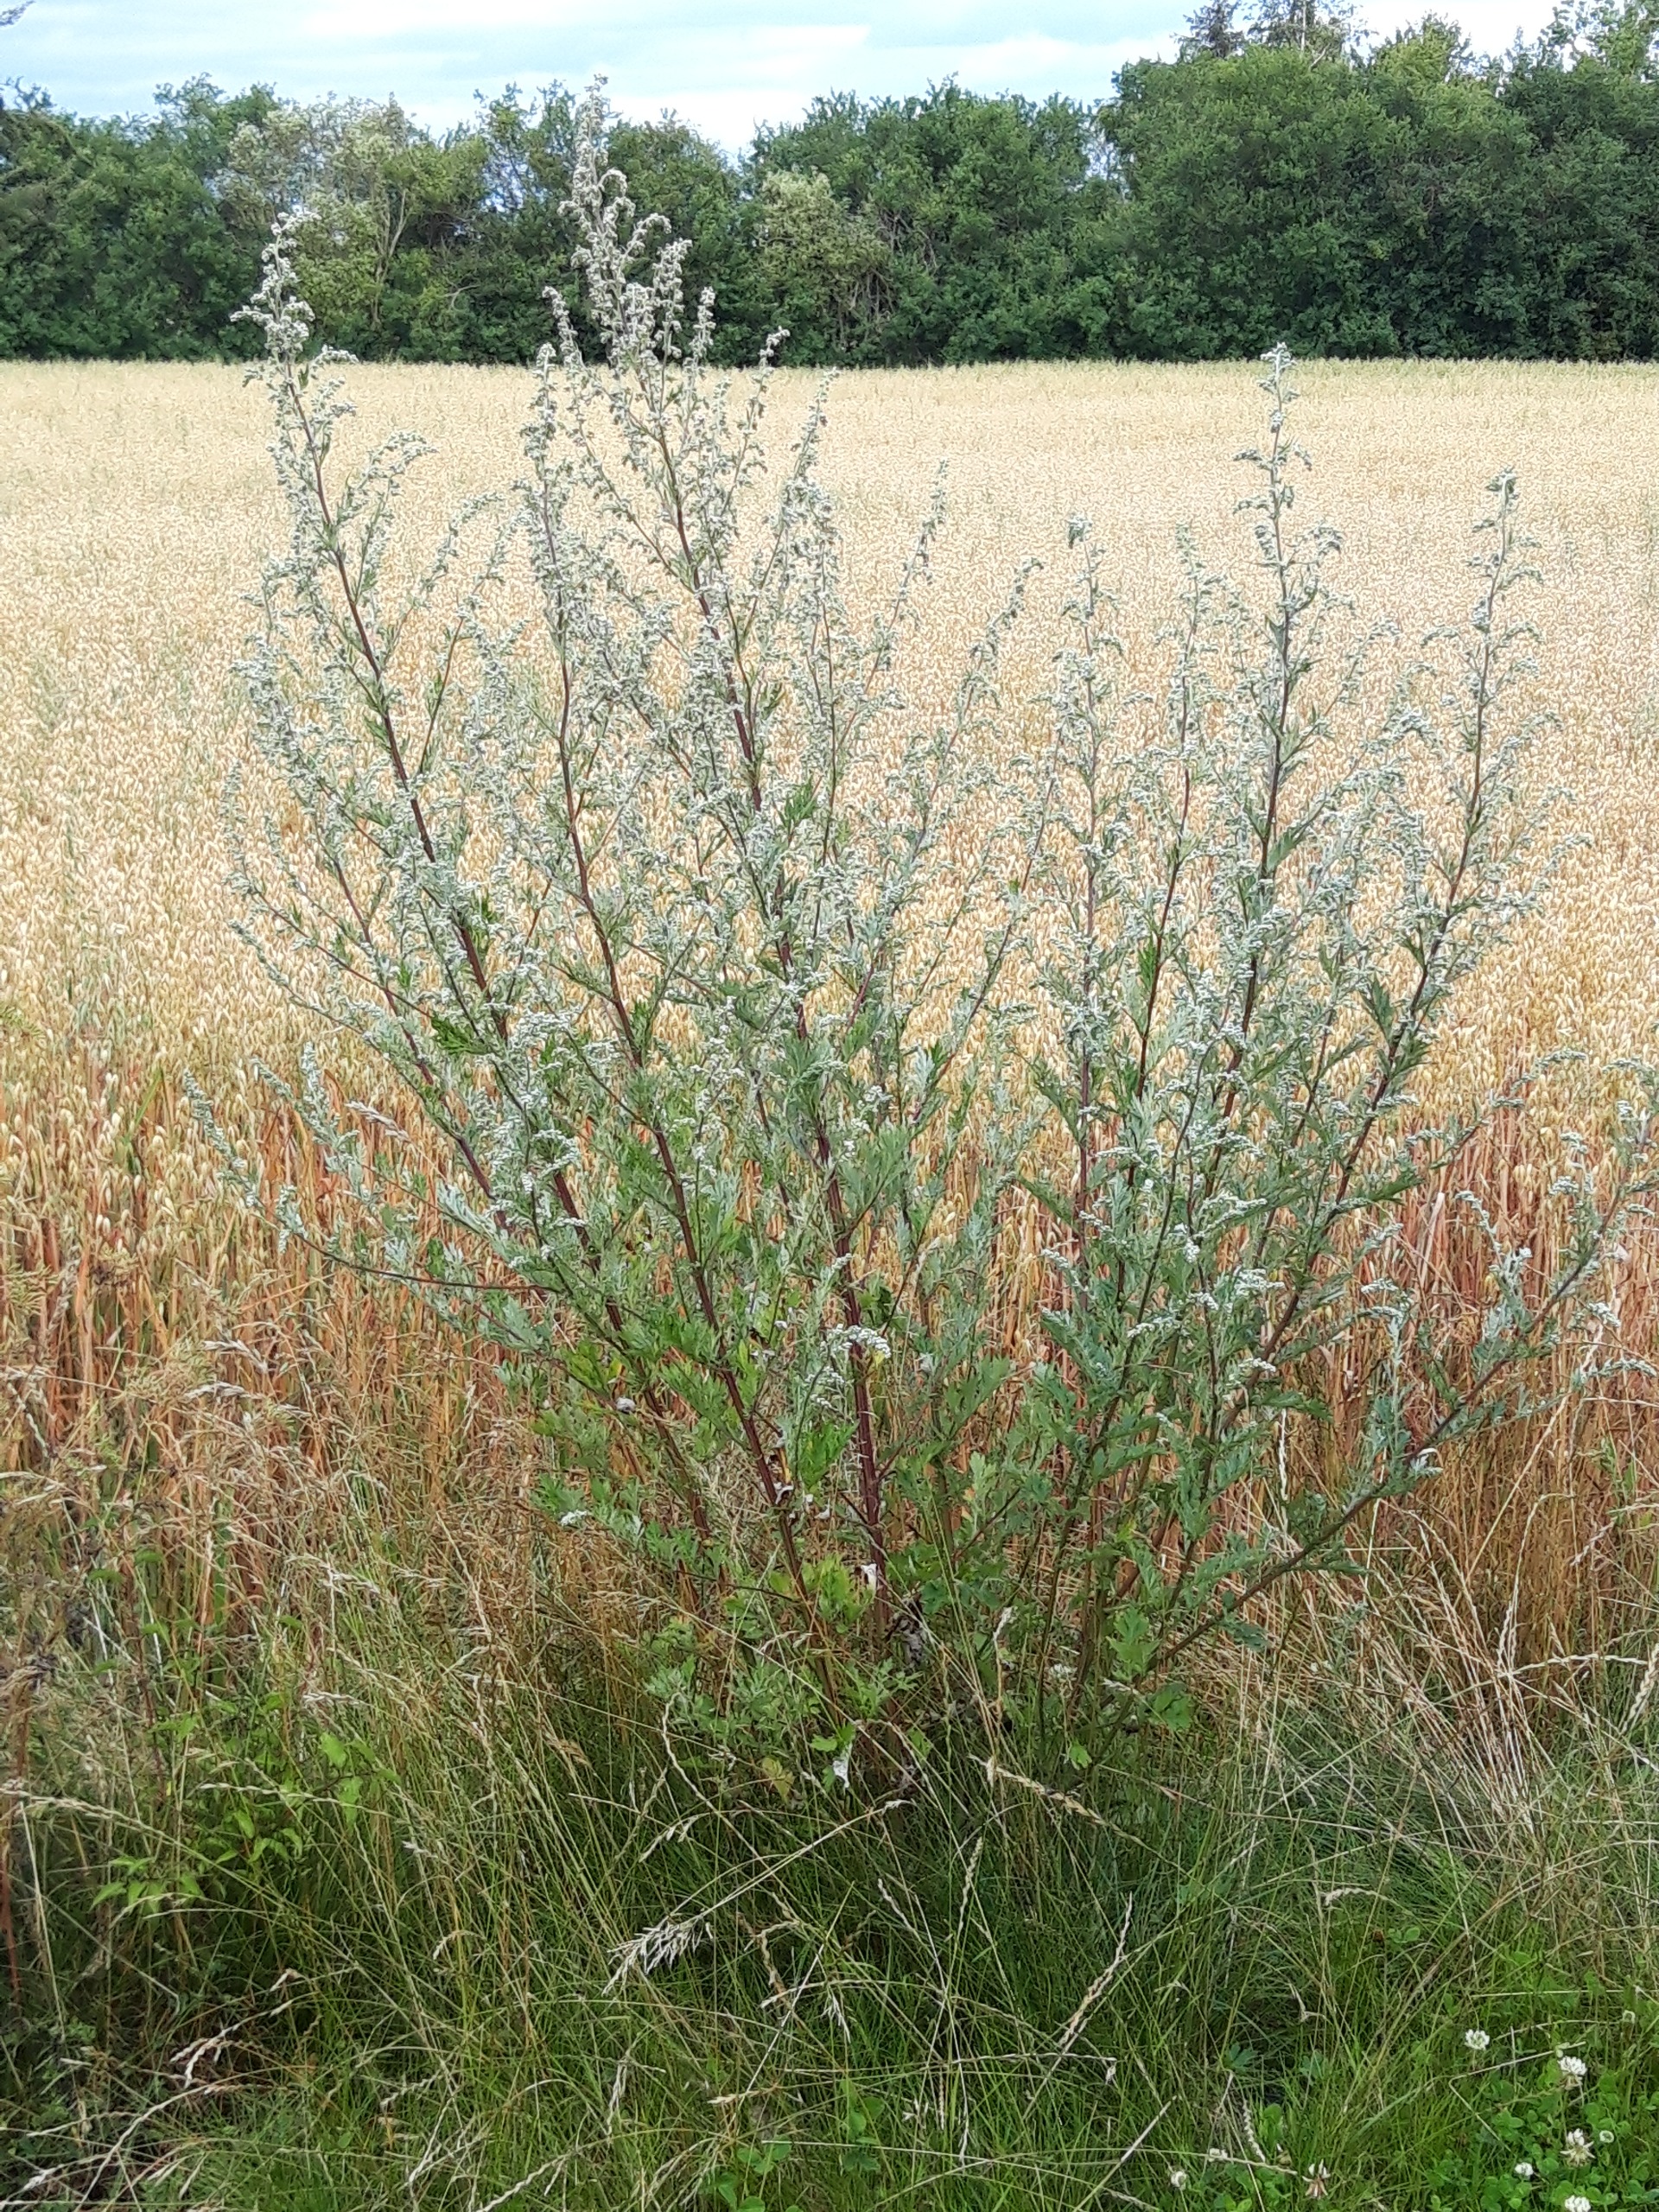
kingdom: Plantae
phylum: Tracheophyta
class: Magnoliopsida
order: Asterales
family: Asteraceae
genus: Artemisia
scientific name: Artemisia vulgaris
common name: Grå-bynke
